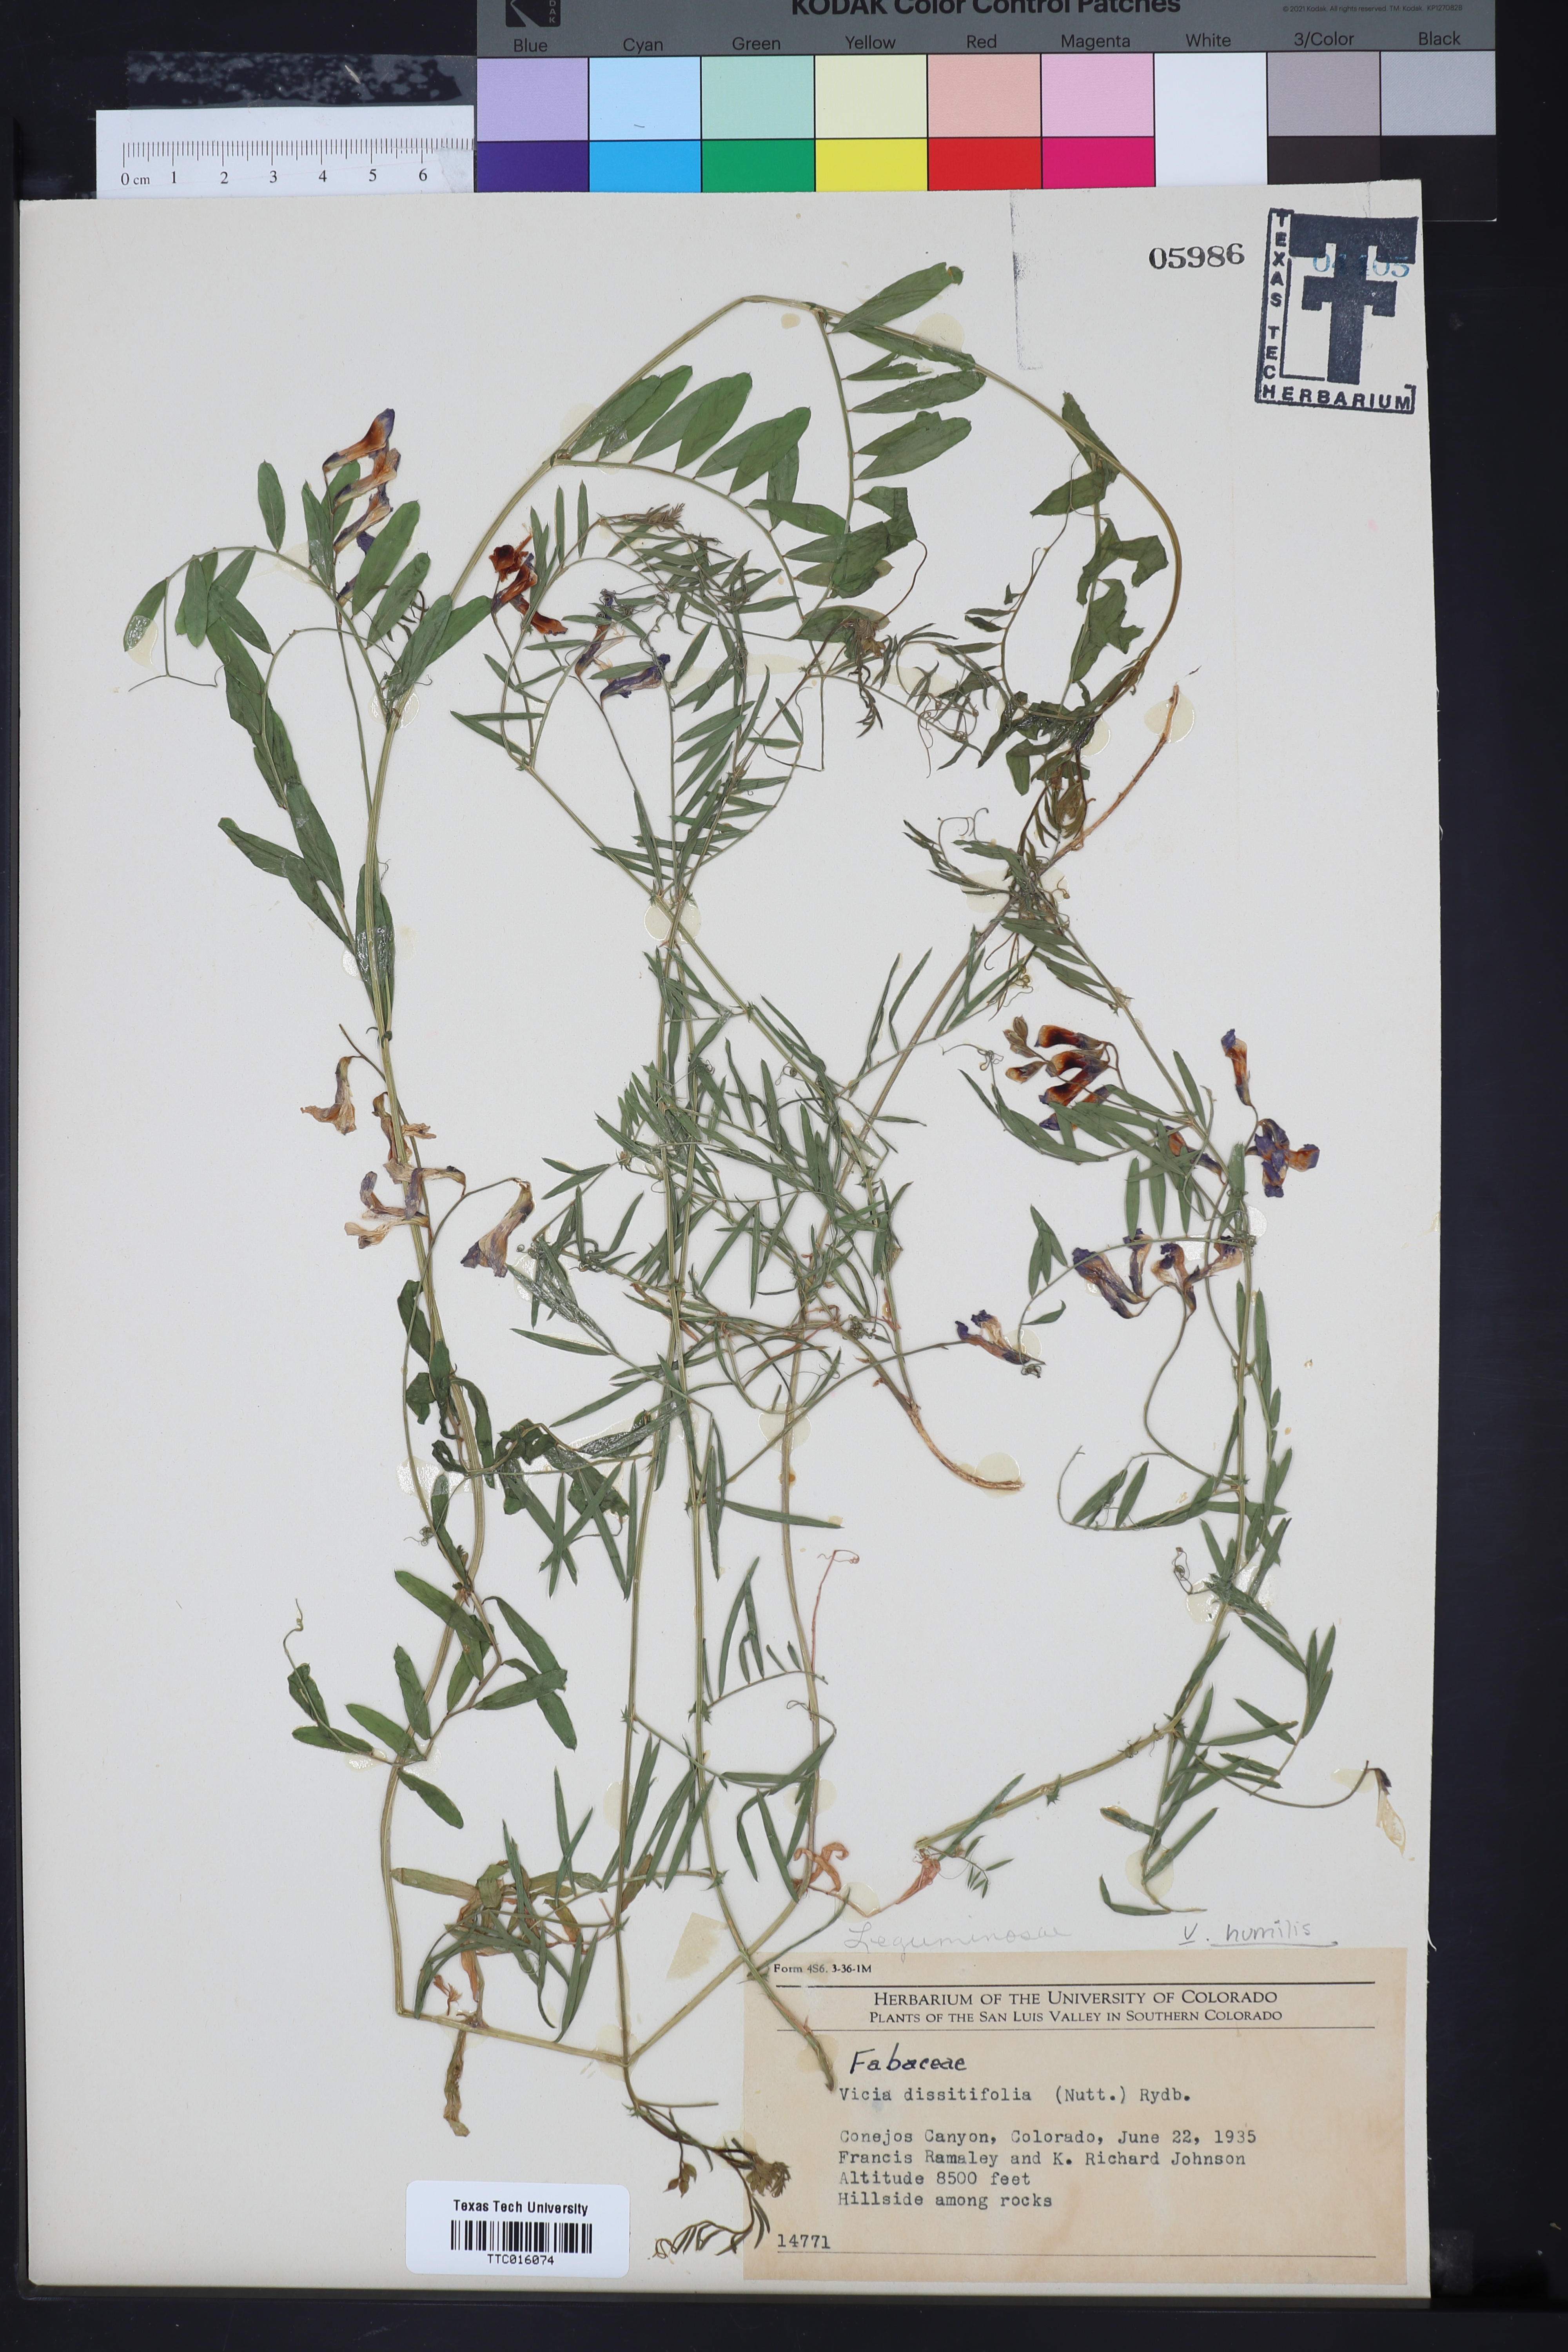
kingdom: Plantae
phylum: Tracheophyta
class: Magnoliopsida
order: Fabales
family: Fabaceae
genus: Vicia
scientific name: Vicia americana
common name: American vetch
